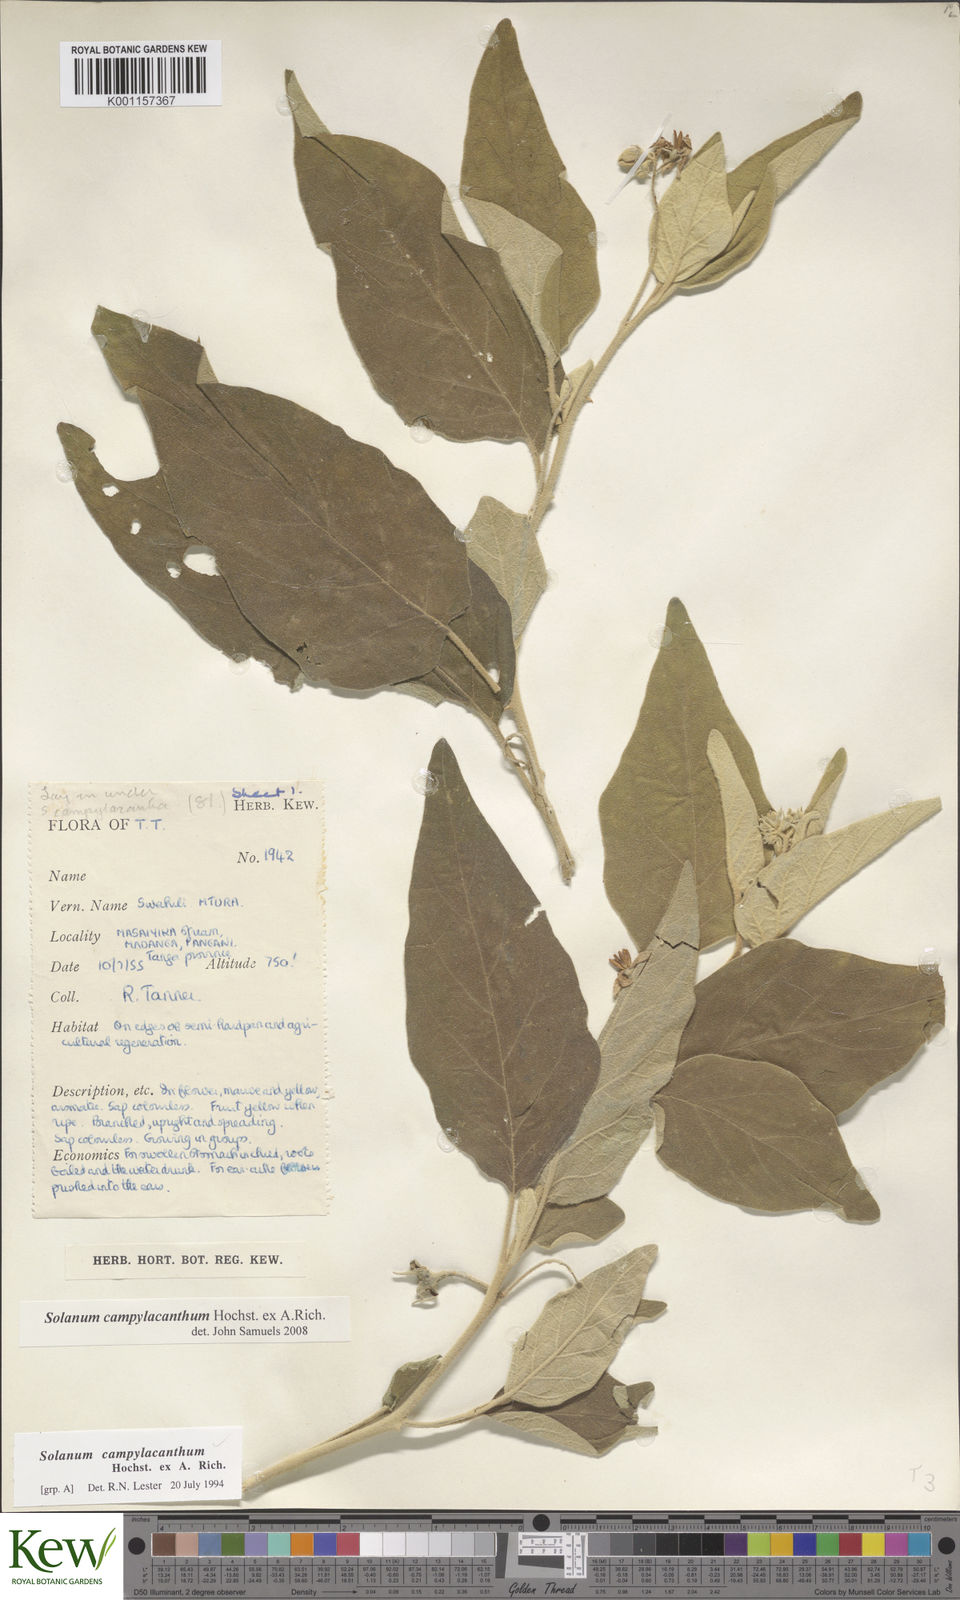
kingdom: Plantae
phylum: Tracheophyta
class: Magnoliopsida
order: Solanales
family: Solanaceae
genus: Solanum
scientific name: Solanum campylacanthum
